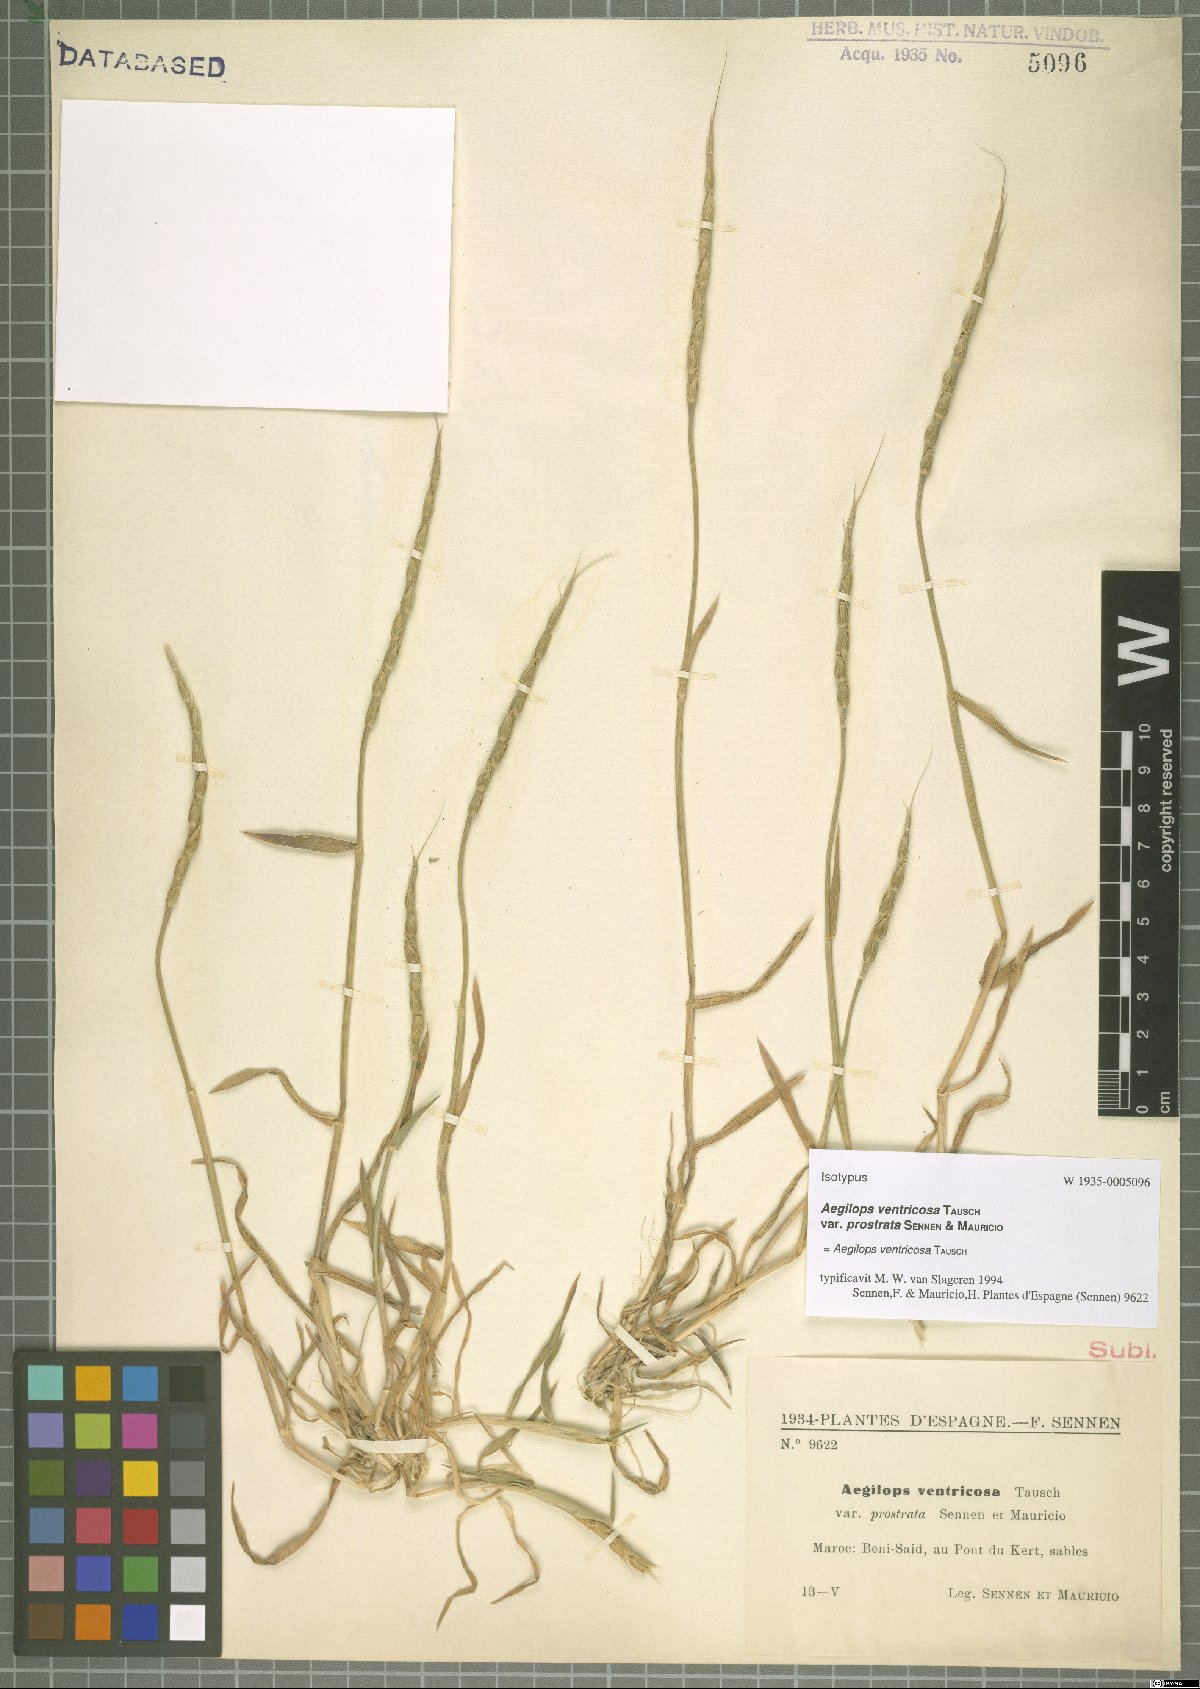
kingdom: Plantae
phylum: Tracheophyta
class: Liliopsida
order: Poales
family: Poaceae
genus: Aegilops
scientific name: Aegilops ventricosa
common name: Swollen goat grass
